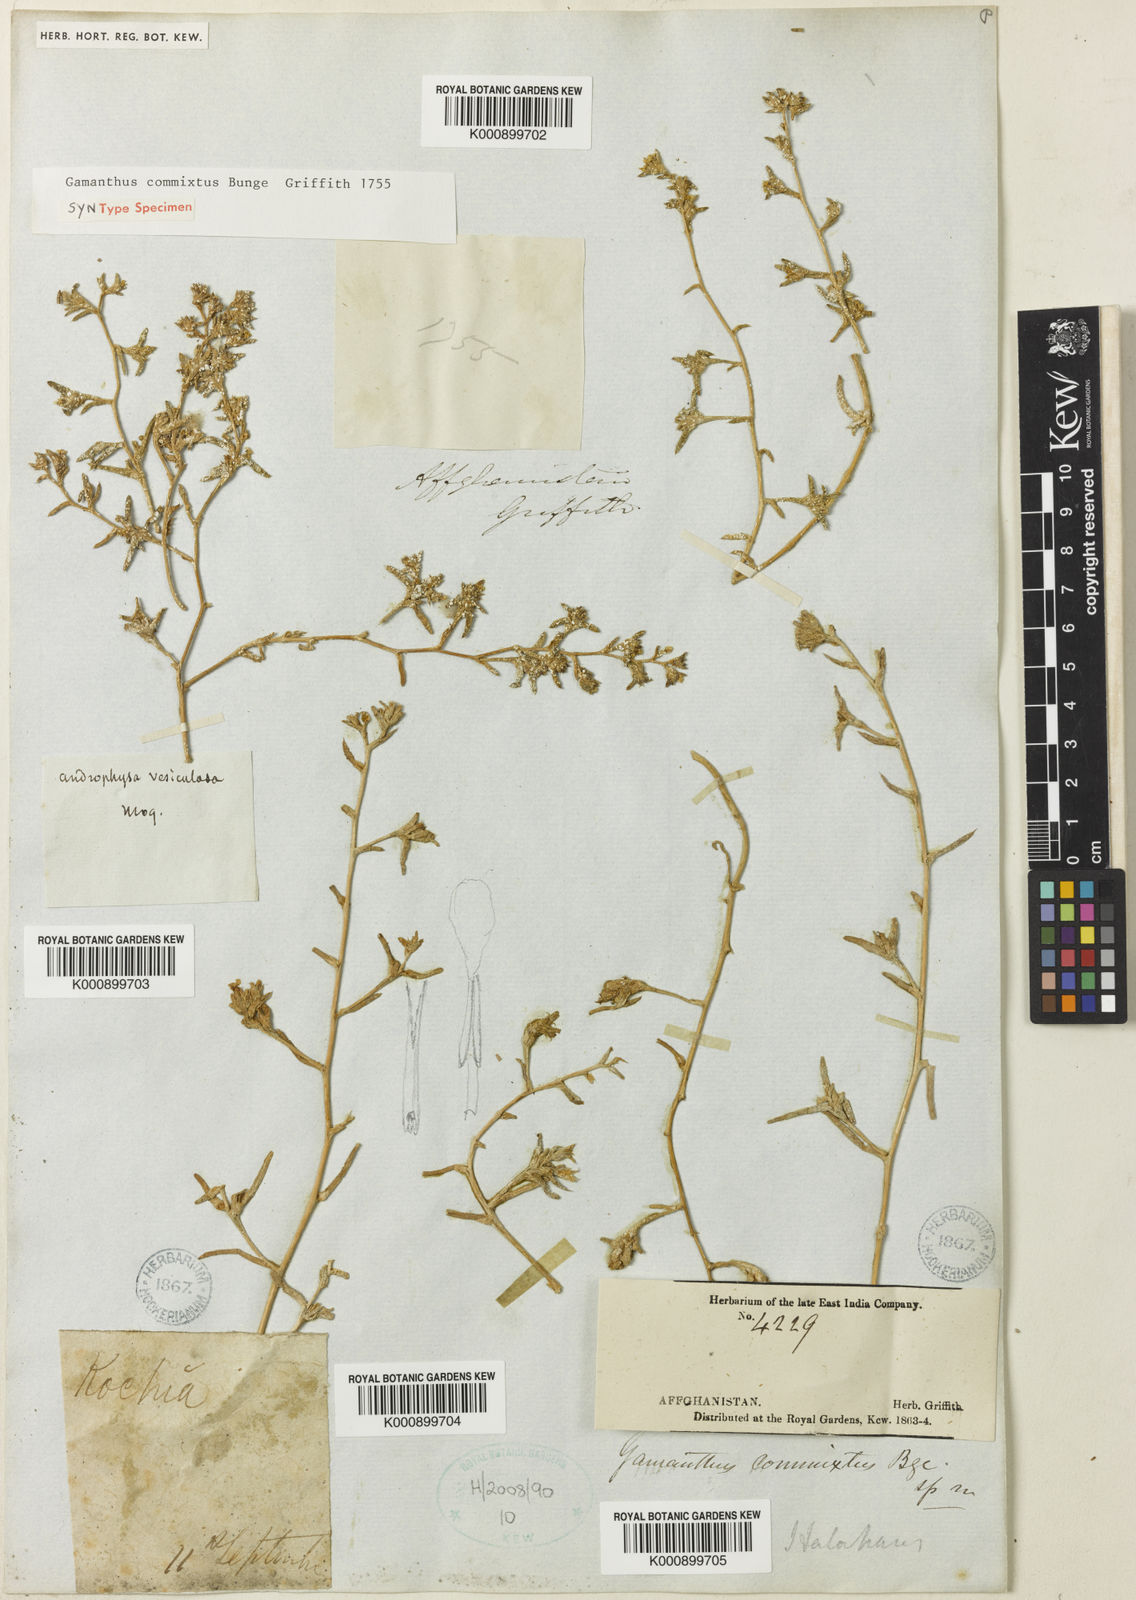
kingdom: Plantae
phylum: Tracheophyta
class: Magnoliopsida
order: Caryophyllales
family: Amaranthaceae
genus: Halimocnemis
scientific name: Halimocnemis commixtus
